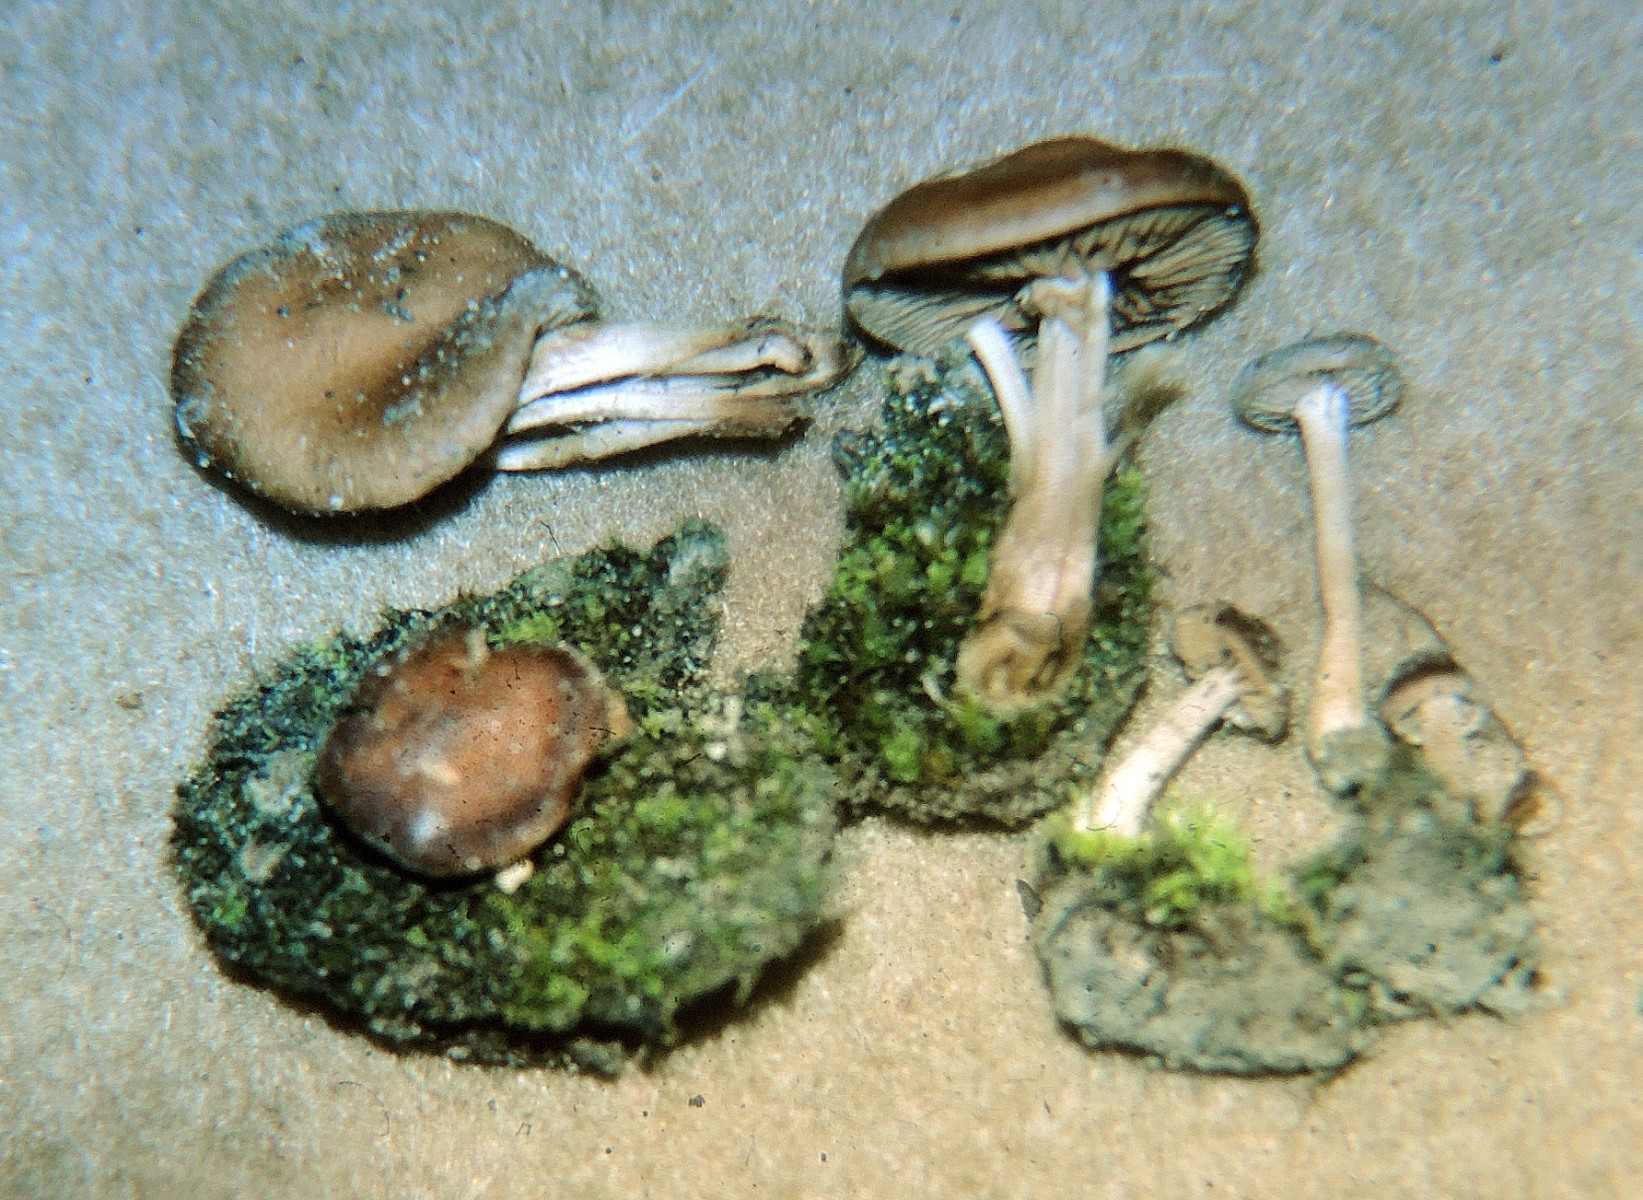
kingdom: Fungi
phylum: Basidiomycota
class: Agaricomycetes
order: Agaricales
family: Hymenogastraceae
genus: Hebeloma
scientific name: Hebeloma pseudoamarescens
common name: brandplet-tåreblad
